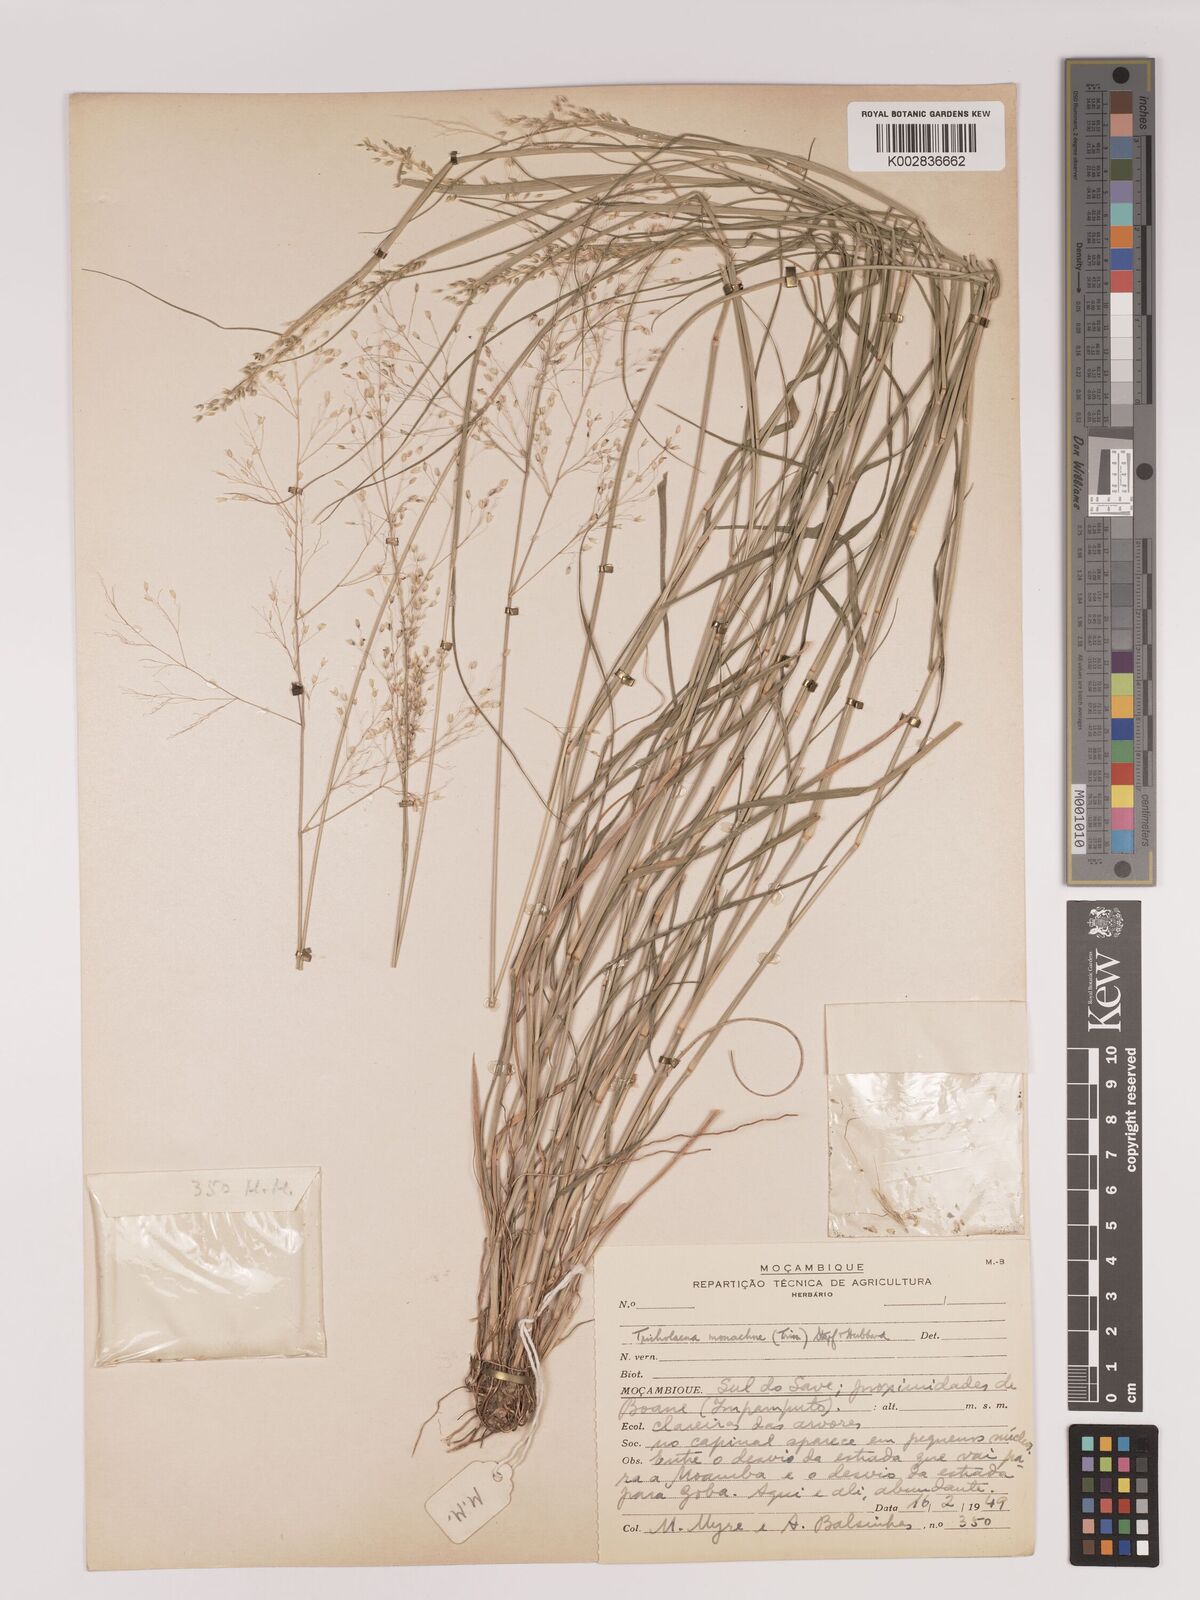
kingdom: Plantae
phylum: Tracheophyta
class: Liliopsida
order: Poales
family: Poaceae
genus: Tricholaena
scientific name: Tricholaena monachne
